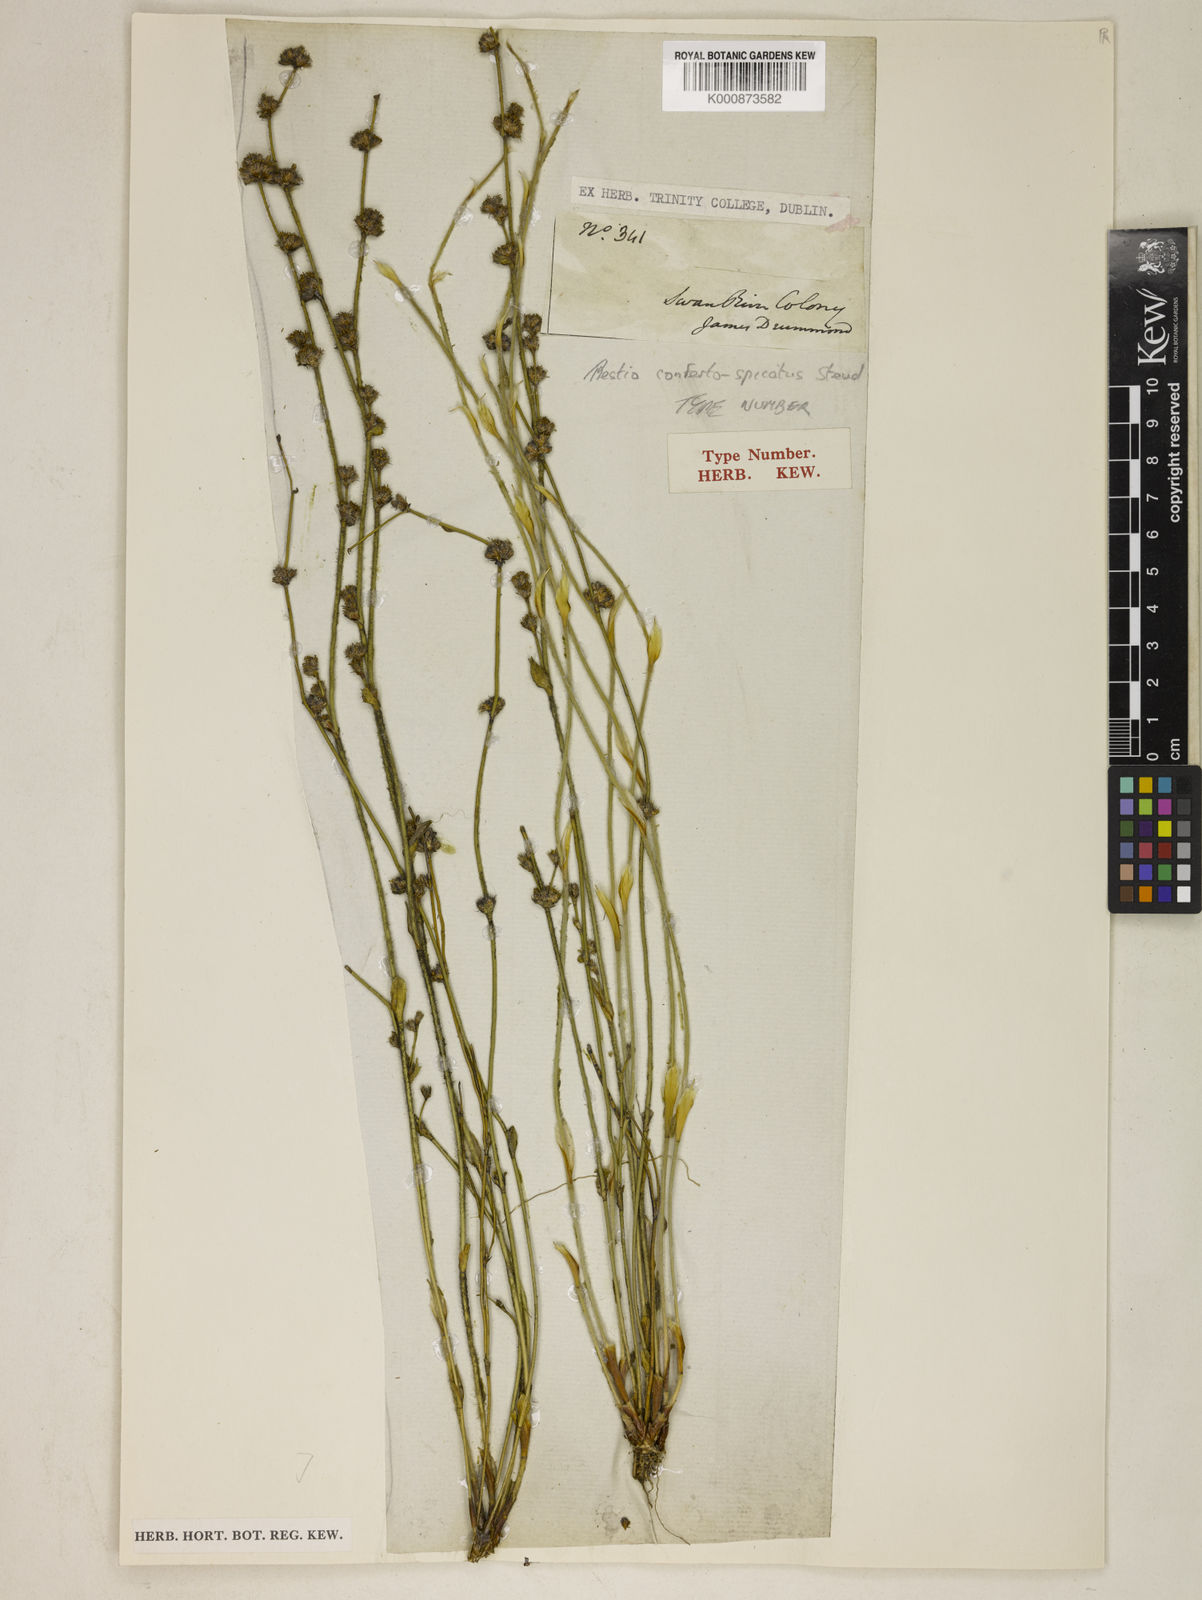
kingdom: Plantae
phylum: Tracheophyta
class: Liliopsida
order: Poales
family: Restionaceae
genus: Desmocladus
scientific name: Desmocladus confertospicatus
